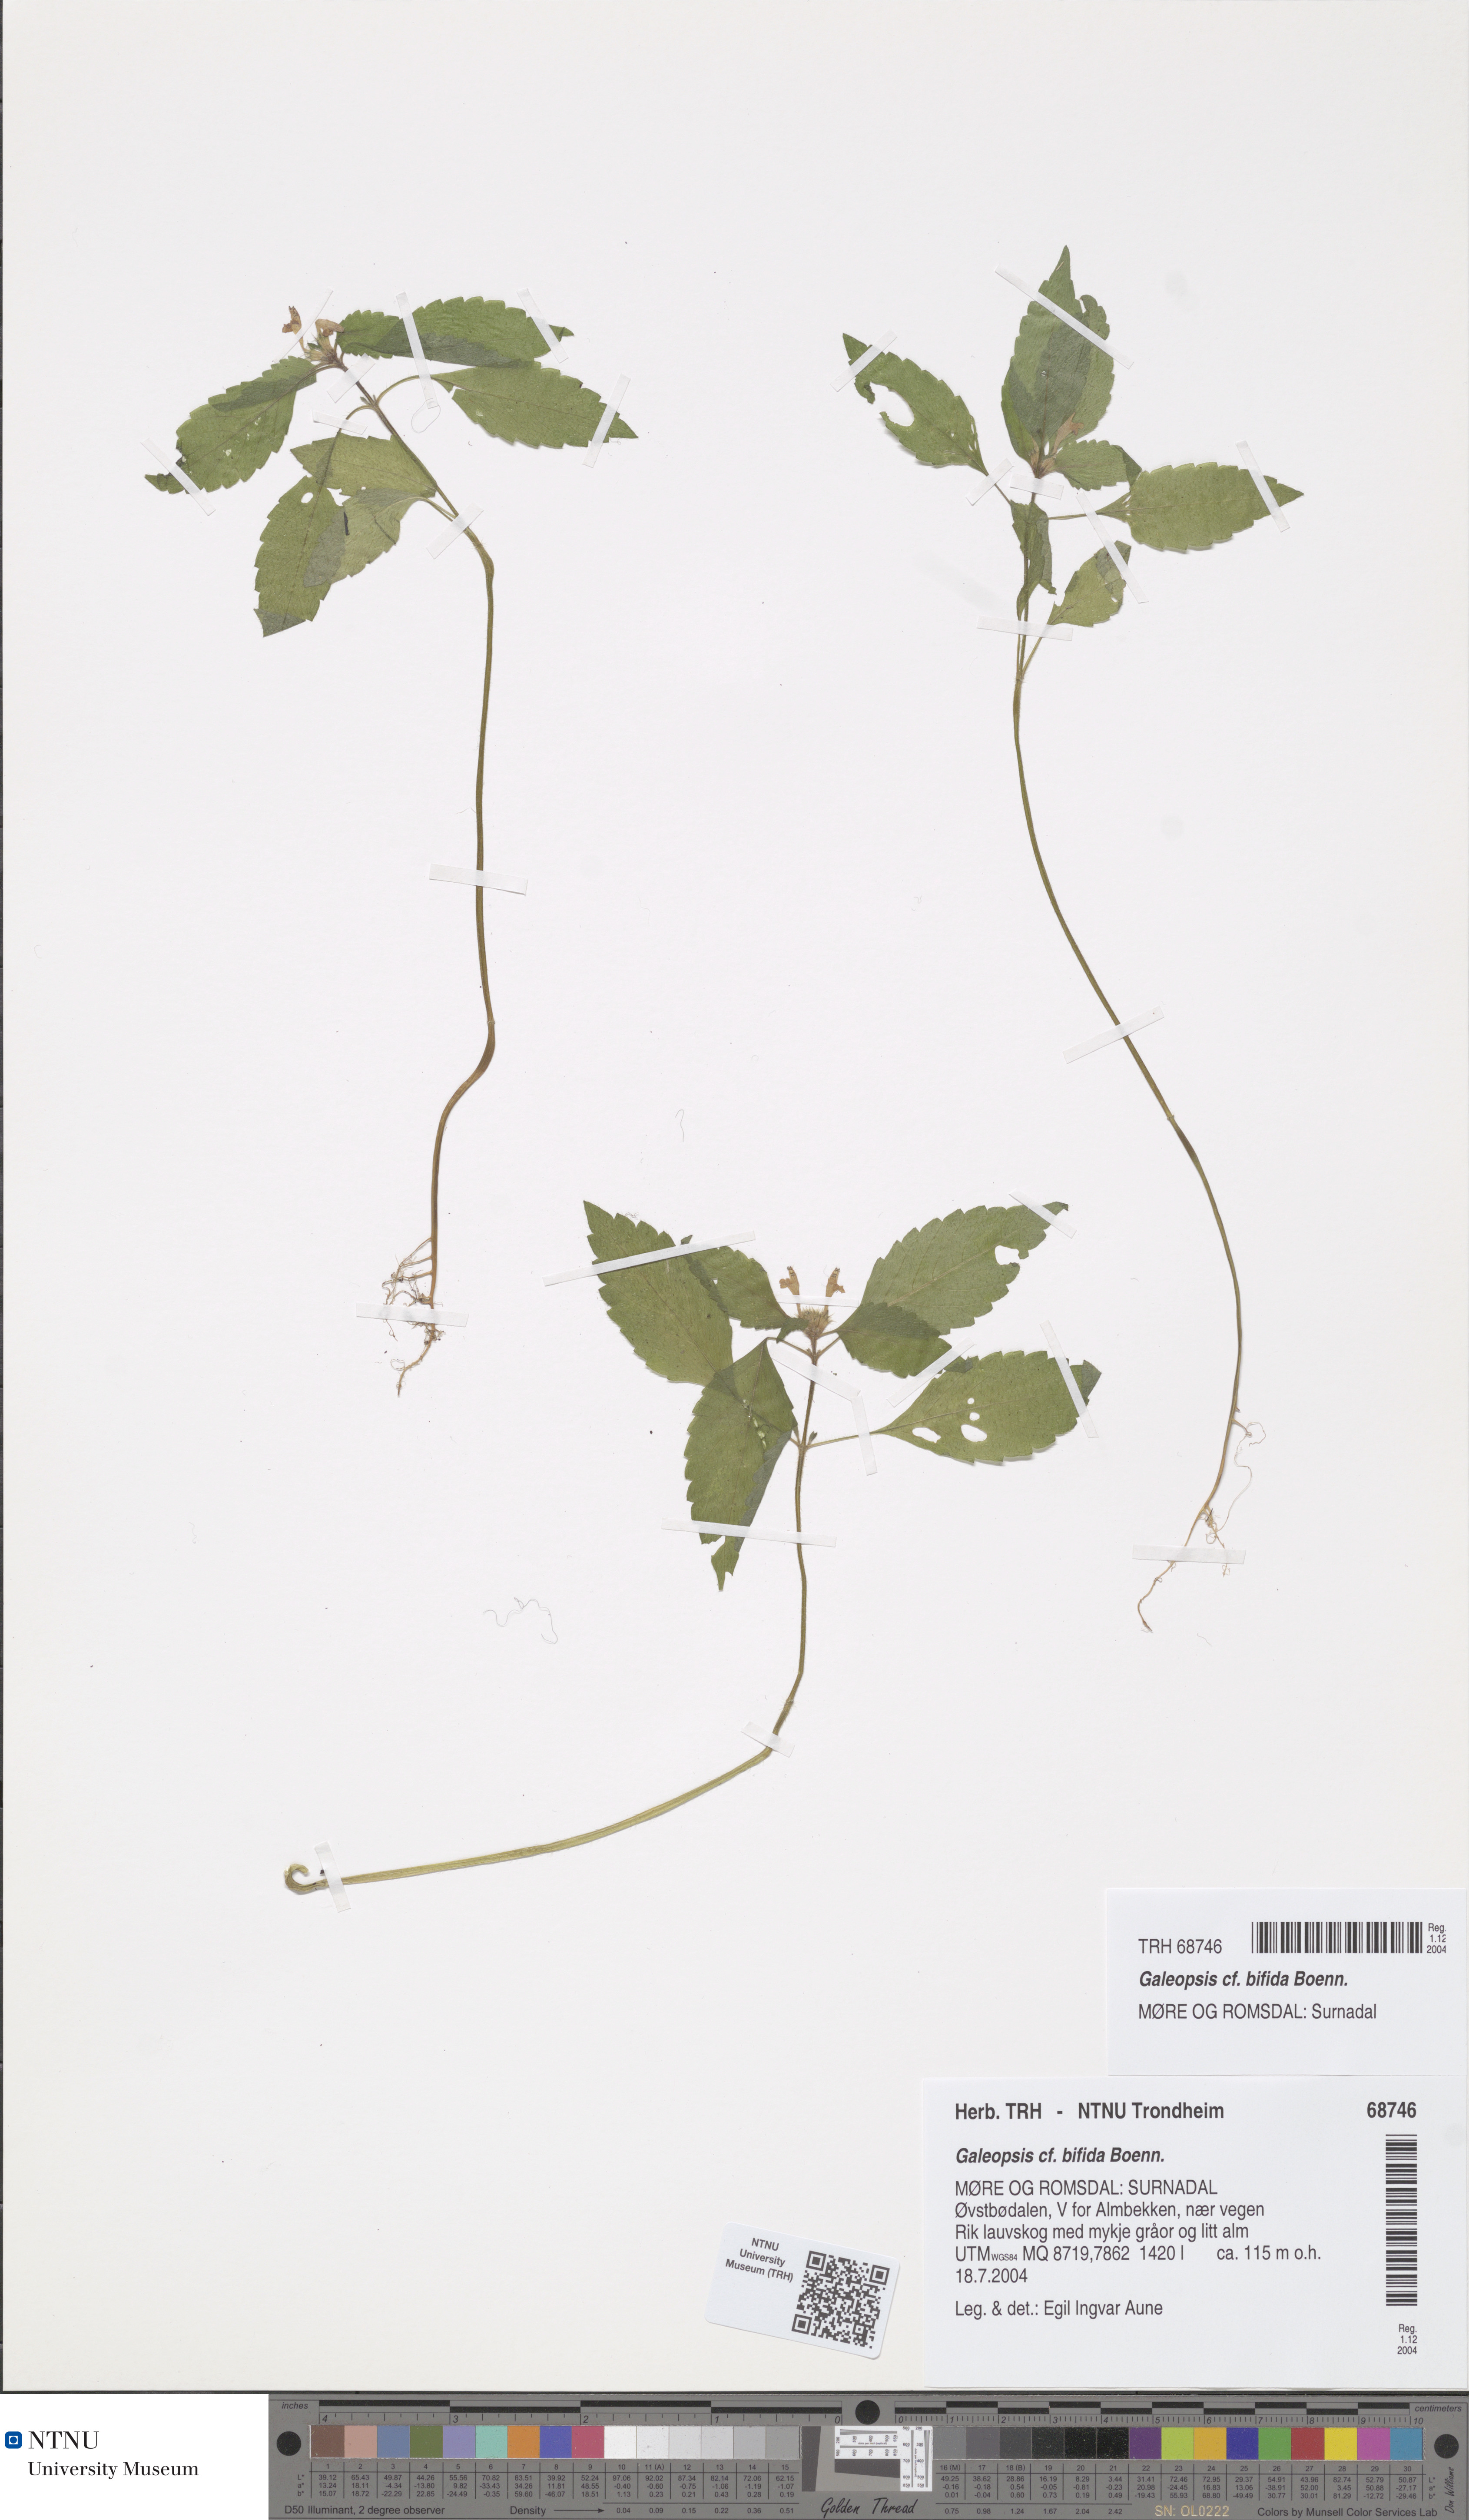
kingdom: Plantae
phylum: Tracheophyta
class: Magnoliopsida
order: Lamiales
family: Lamiaceae
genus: Galeopsis
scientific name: Galeopsis bifida
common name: Bifid hemp-nettle
